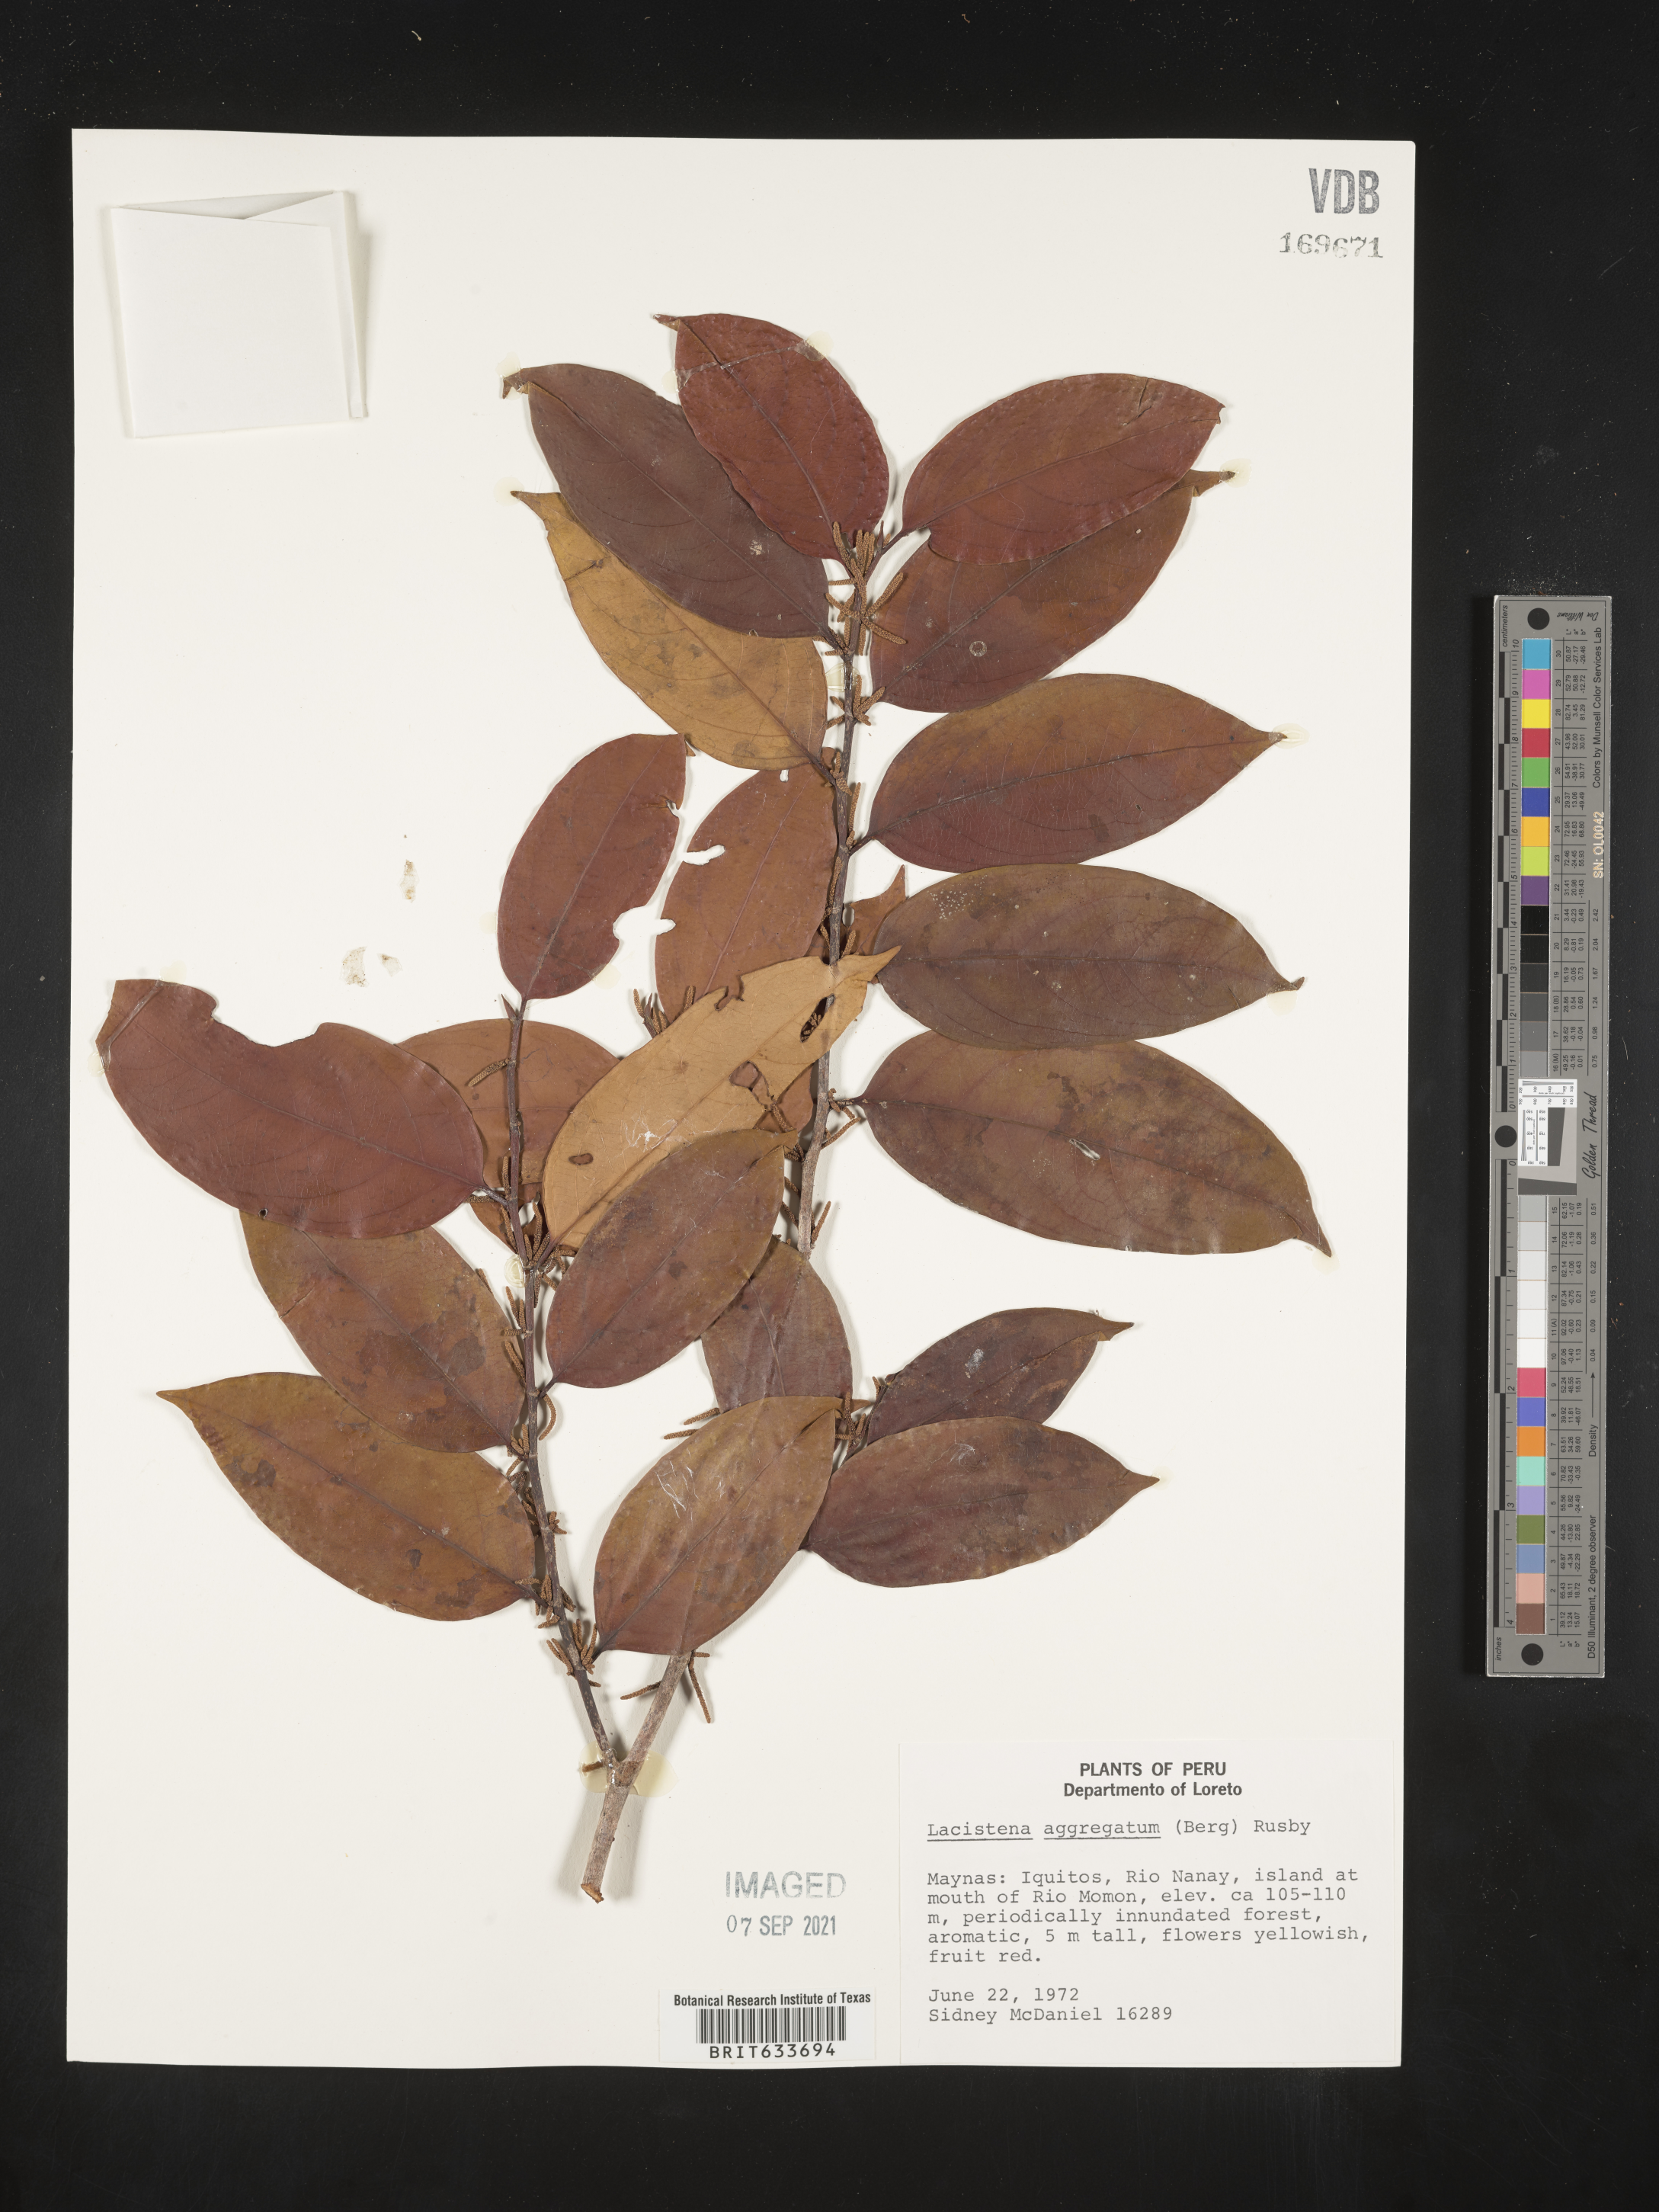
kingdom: Plantae
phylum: Tracheophyta
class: Magnoliopsida
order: Malpighiales
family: Lacistemataceae
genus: Lacistema
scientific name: Lacistema
